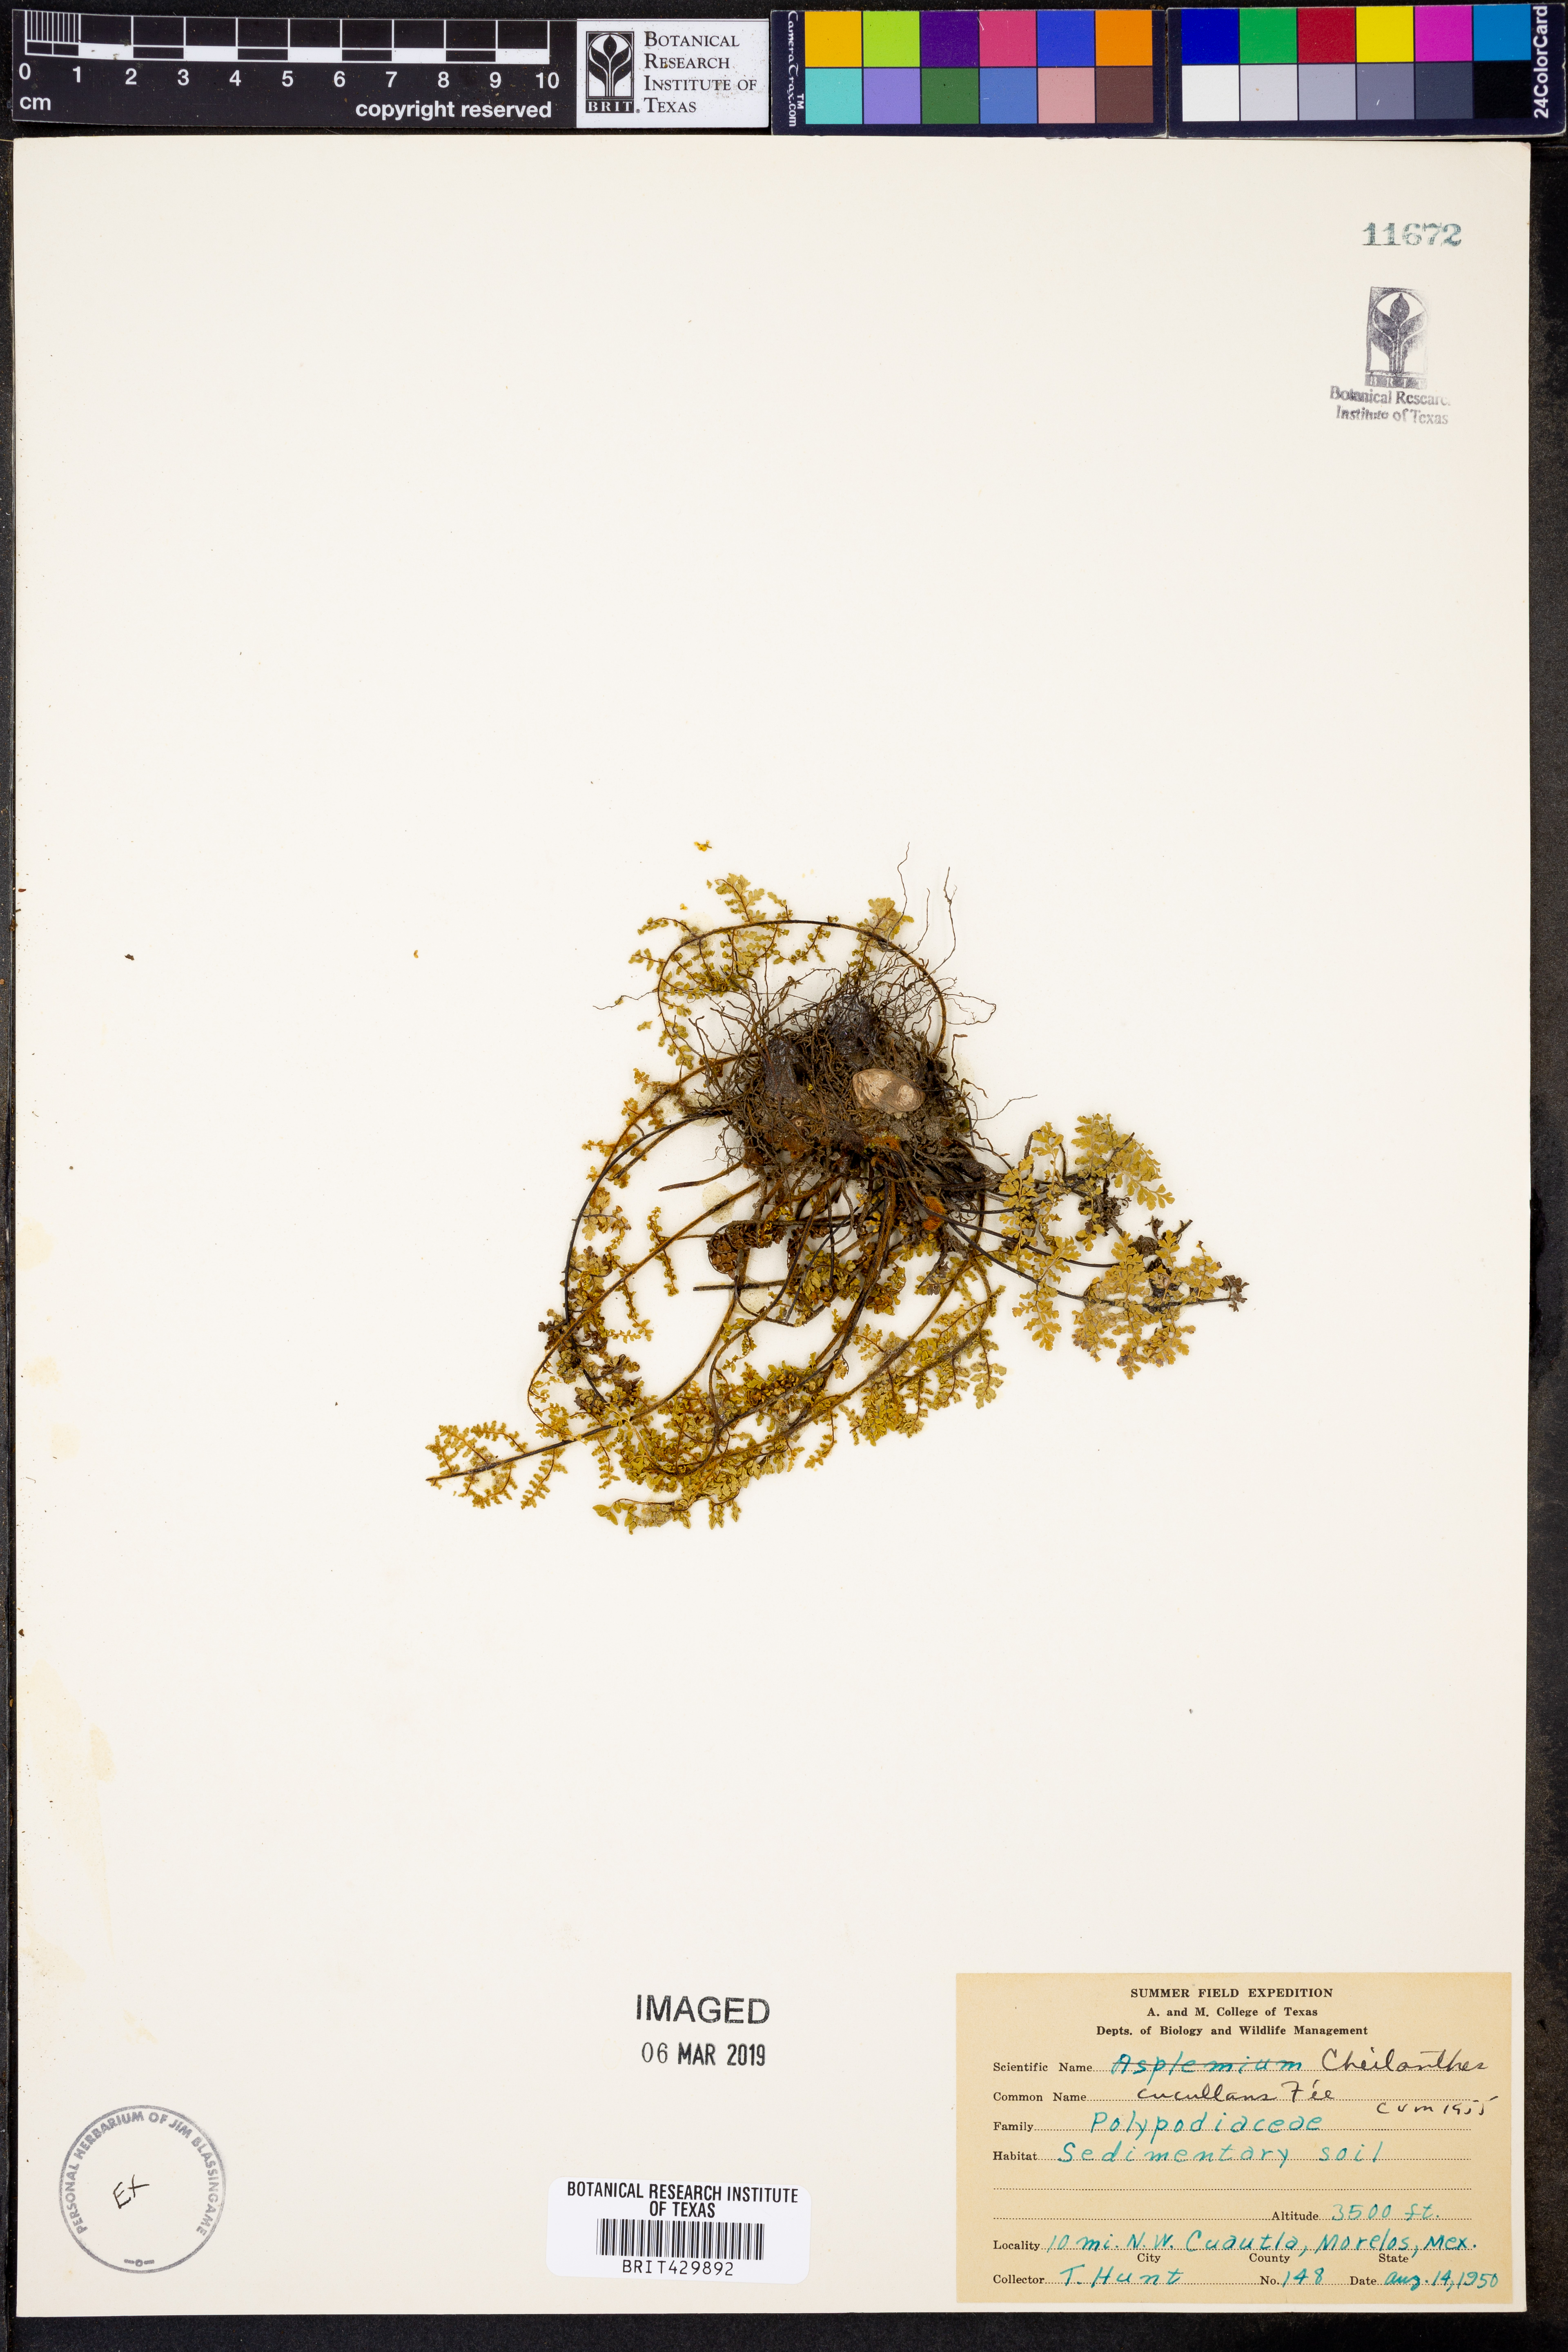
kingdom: Plantae
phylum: Tracheophyta
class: Polypodiopsida
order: Polypodiales
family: Pteridaceae
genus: Myriopteris
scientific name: Myriopteris gracilis
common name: Fee's lip fern
